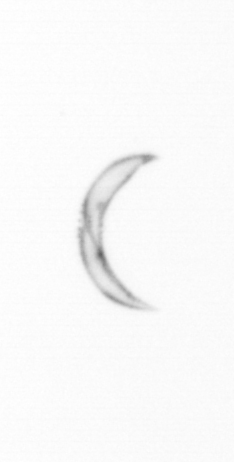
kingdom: Chromista
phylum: Ochrophyta
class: Bacillariophyceae
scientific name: Bacillariophyceae
